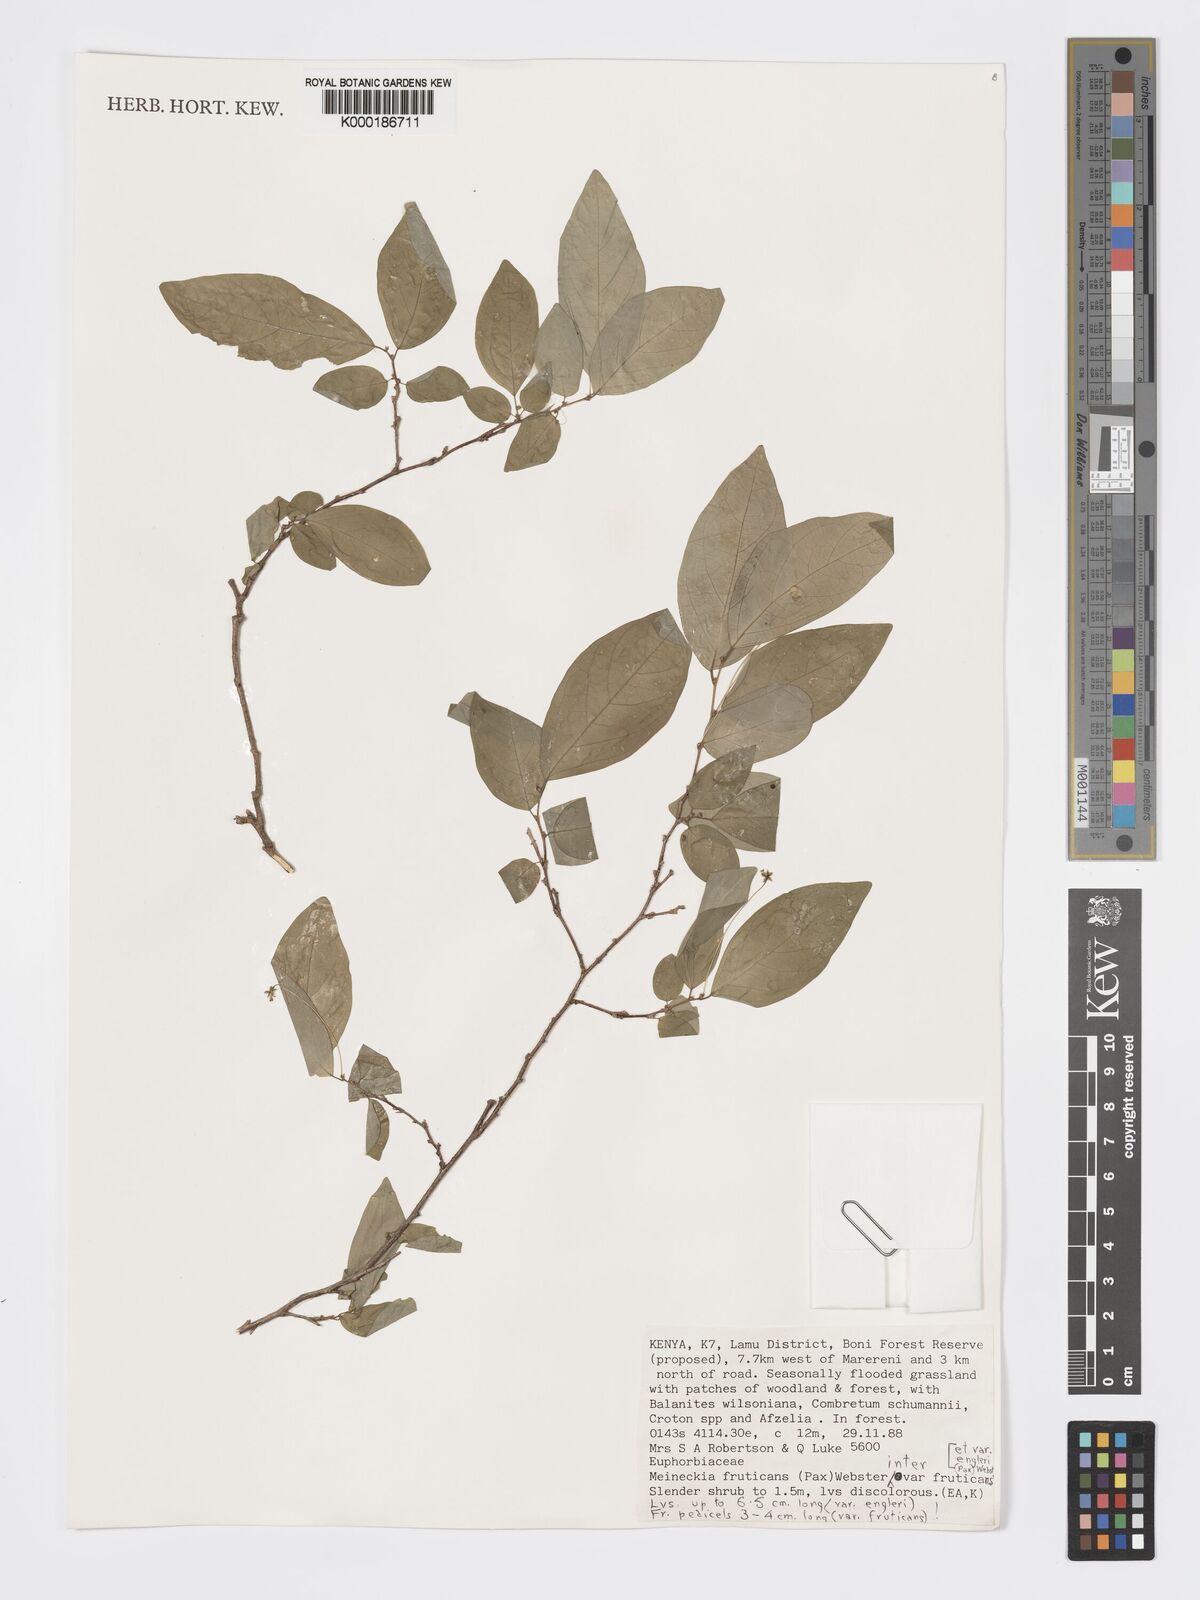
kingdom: Plantae
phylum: Tracheophyta
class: Magnoliopsida
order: Malpighiales
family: Phyllanthaceae
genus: Meineckia
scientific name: Meineckia fruticans
